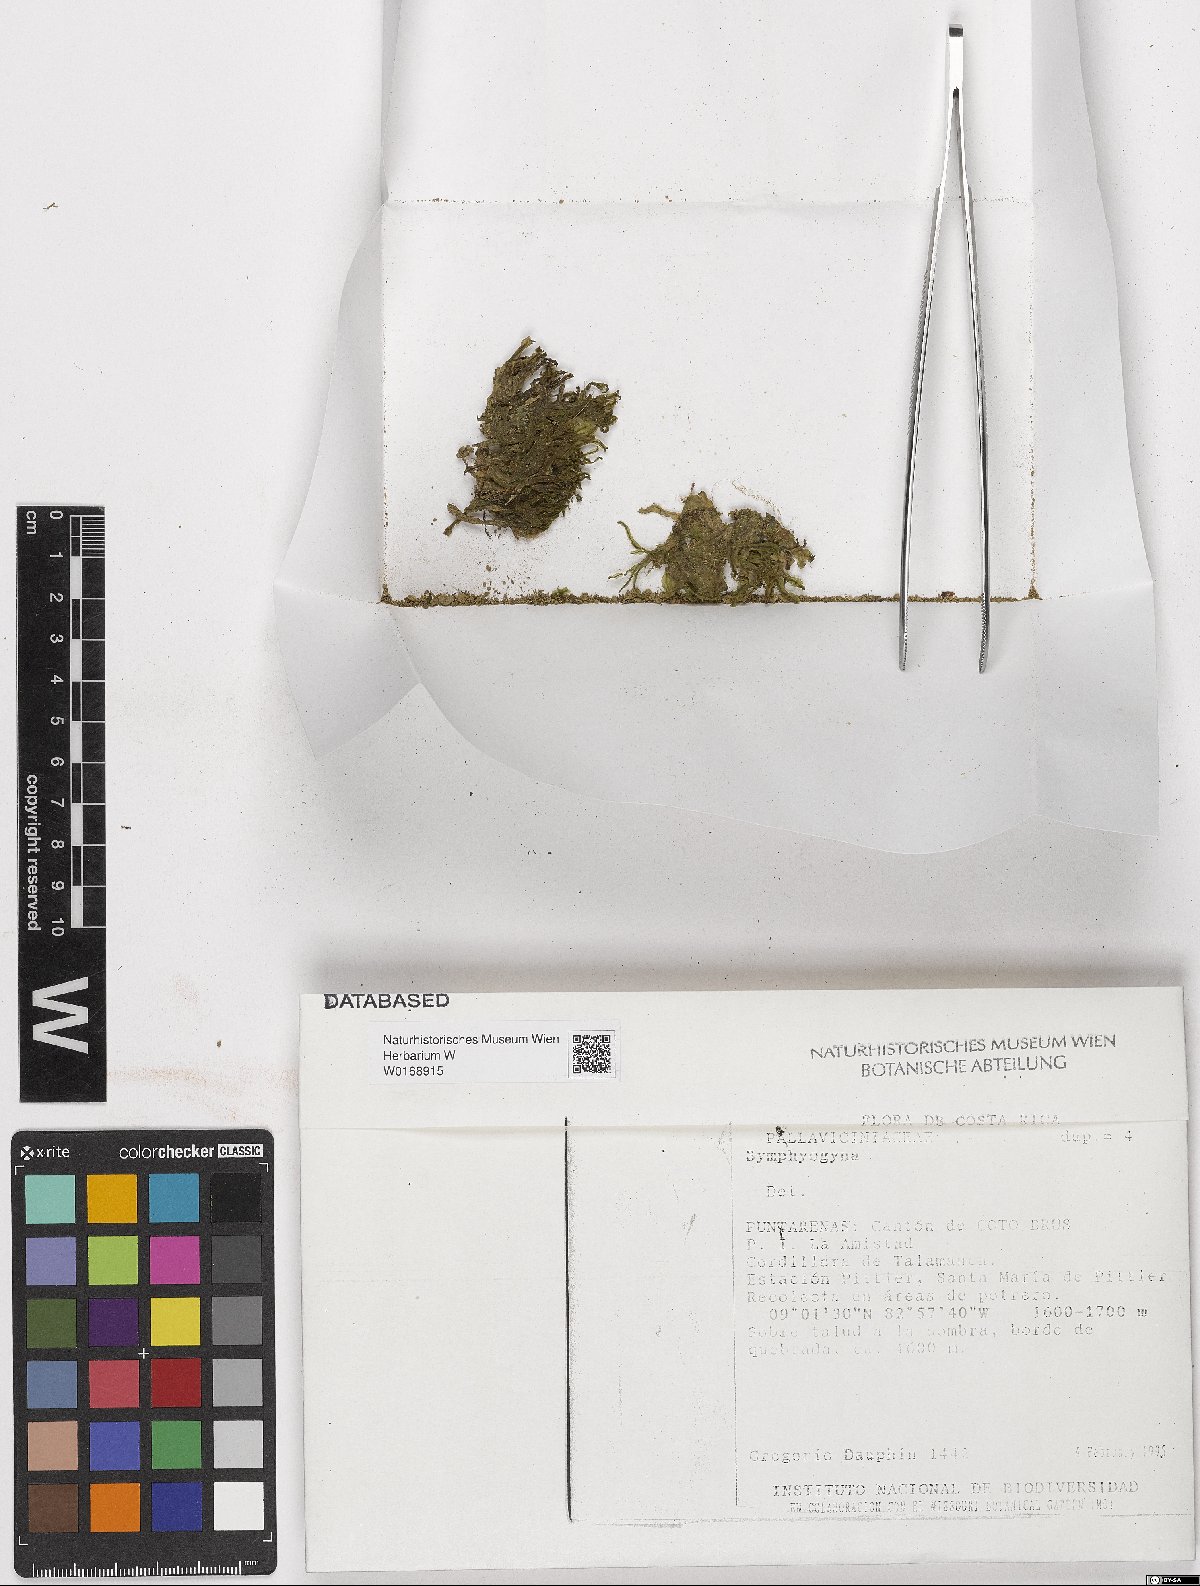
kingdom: Plantae
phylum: Marchantiophyta
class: Jungermanniopsida
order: Pallaviciniales
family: Pallaviciniaceae
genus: Symphyogyna
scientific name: Symphyogyna
